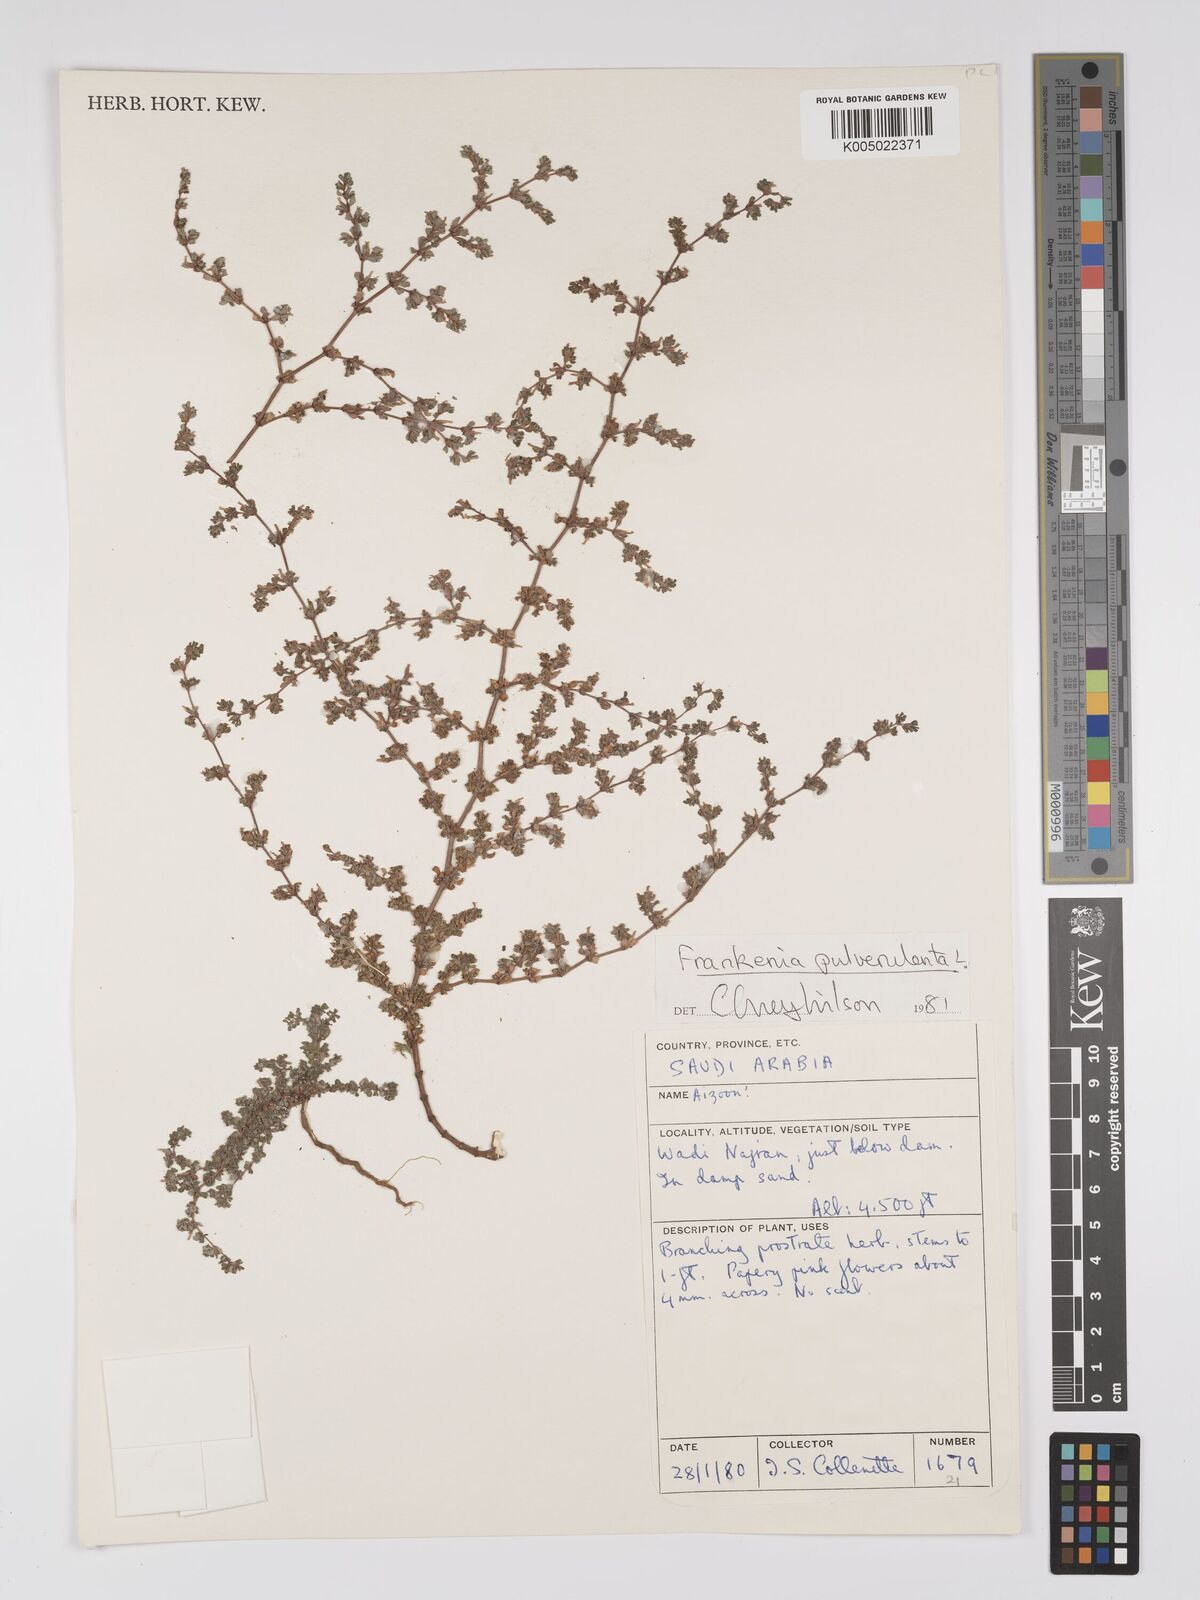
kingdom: Plantae
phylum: Tracheophyta
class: Magnoliopsida
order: Caryophyllales
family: Frankeniaceae
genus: Frankenia
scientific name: Frankenia pulverulenta
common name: European seaheath
